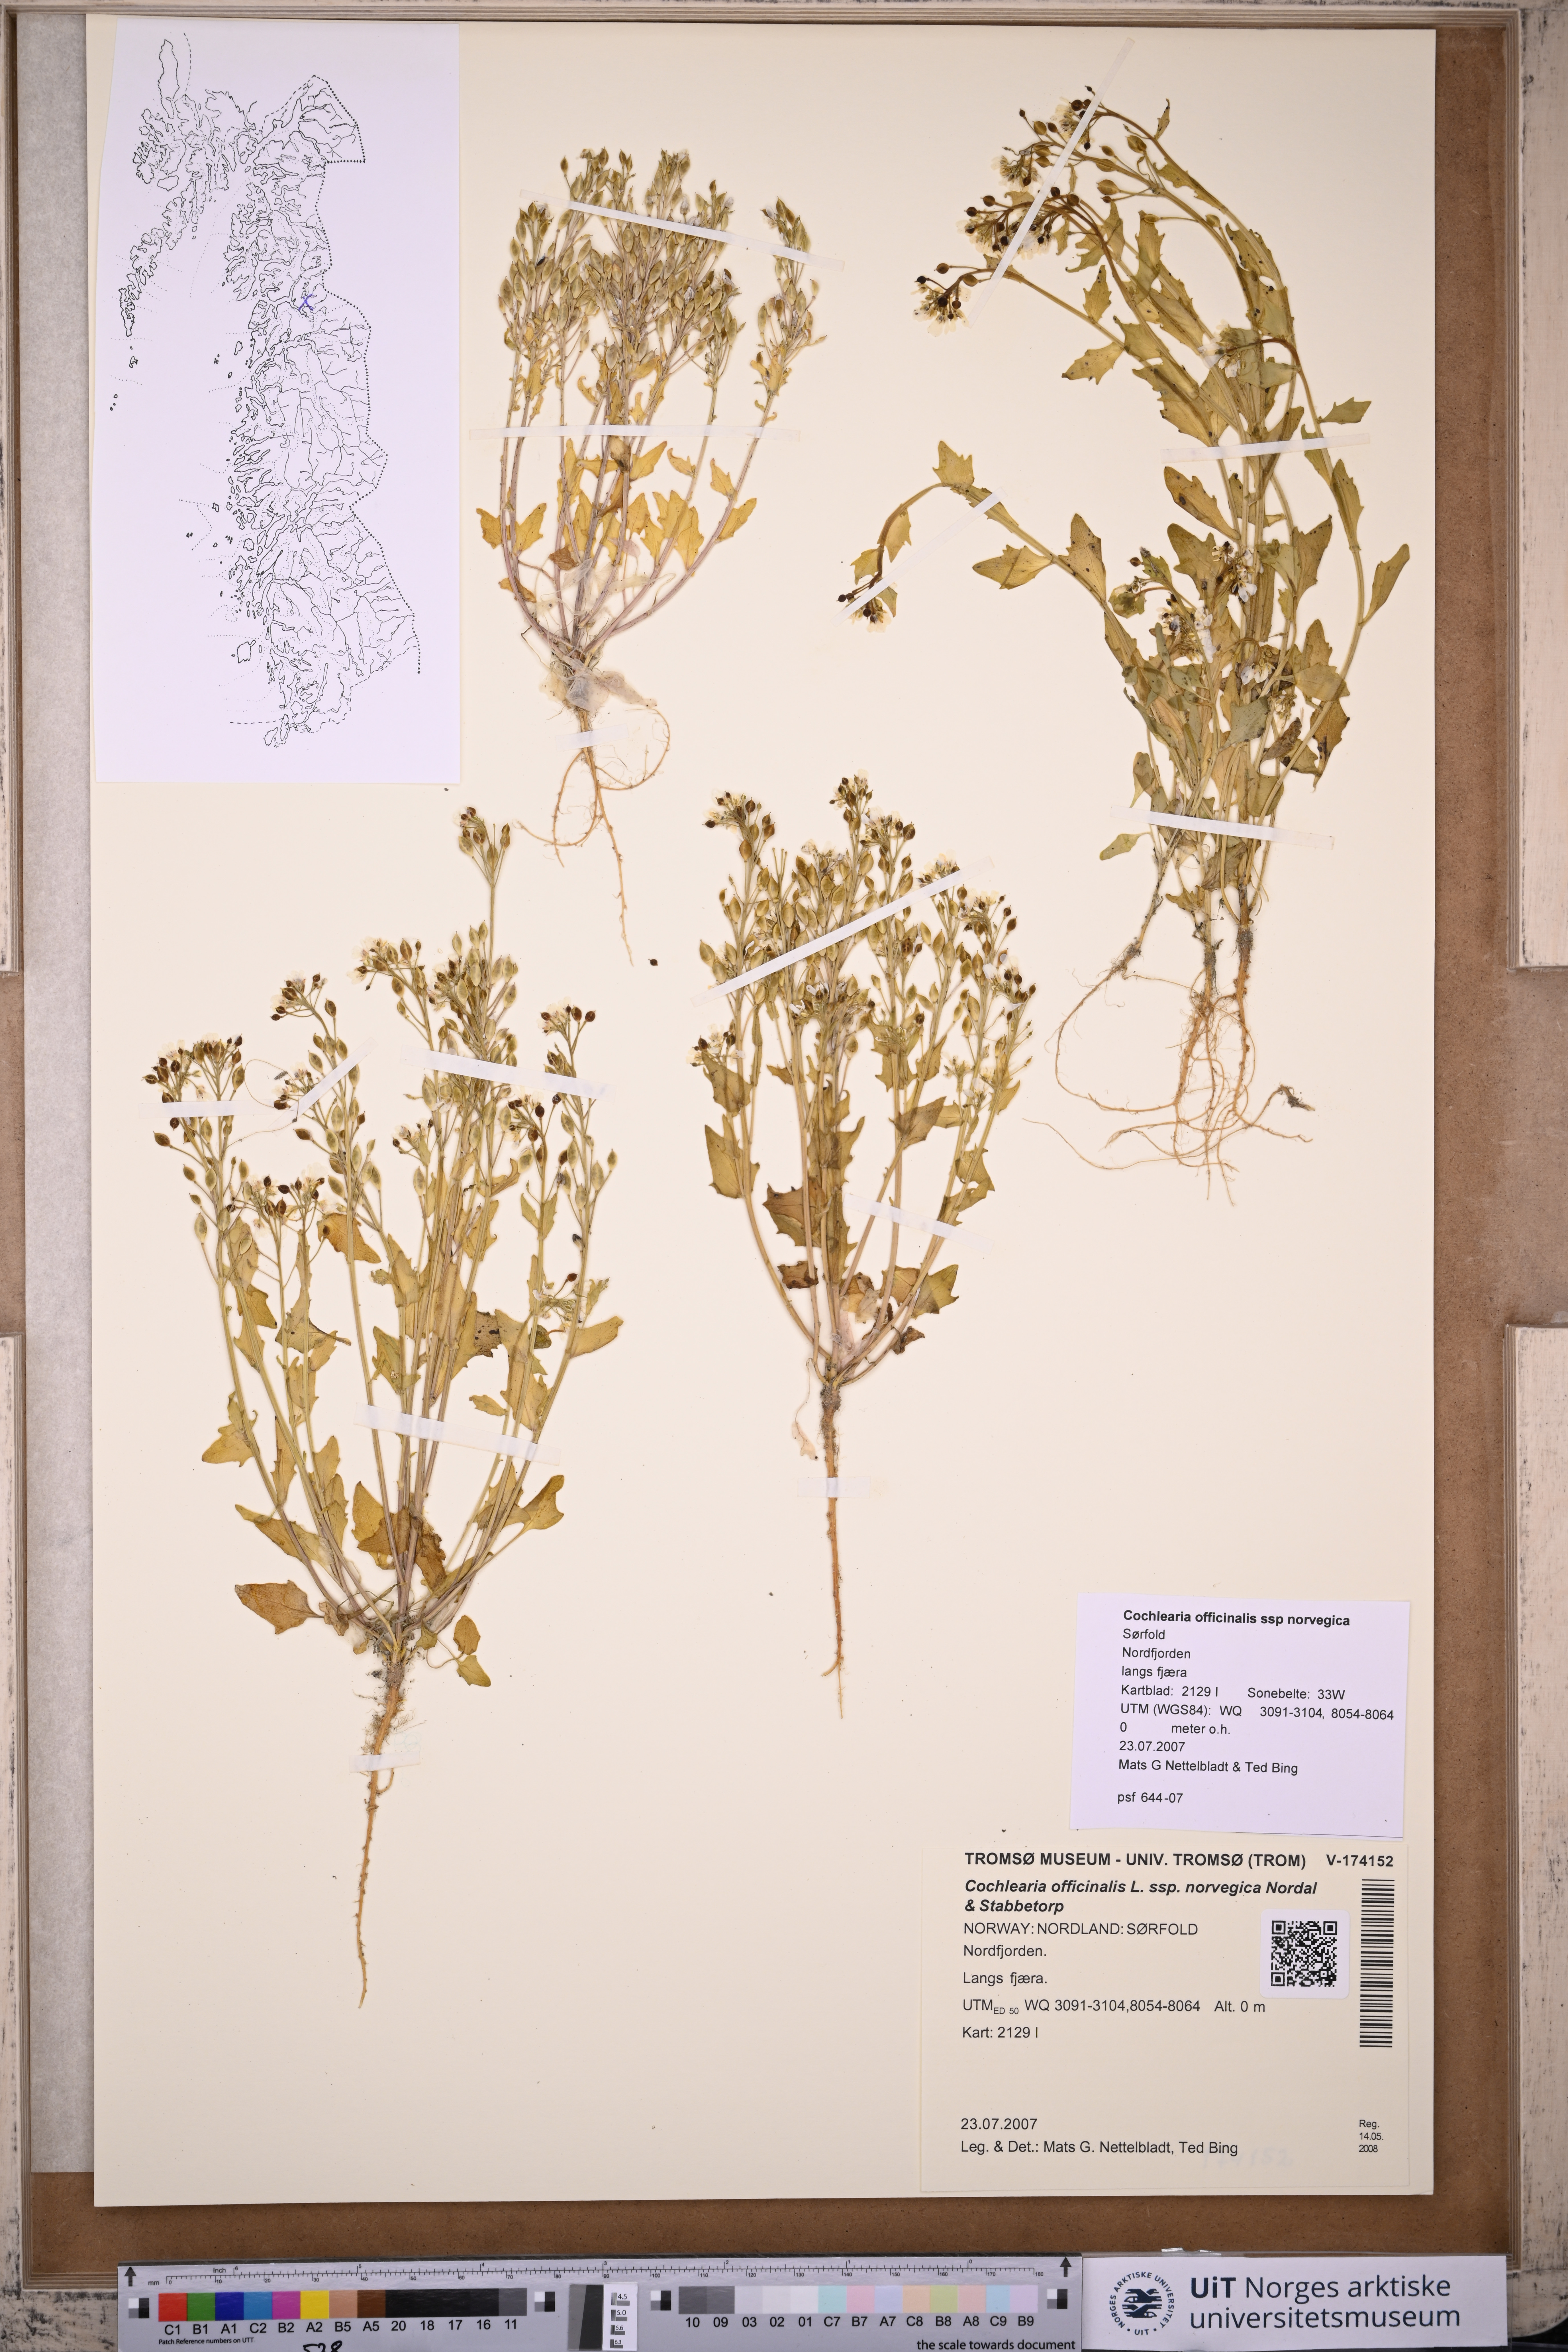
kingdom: Plantae
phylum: Tracheophyta
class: Magnoliopsida
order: Brassicales
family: Brassicaceae
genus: Cochlearia
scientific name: Cochlearia officinalis
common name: Scurvy-grass
